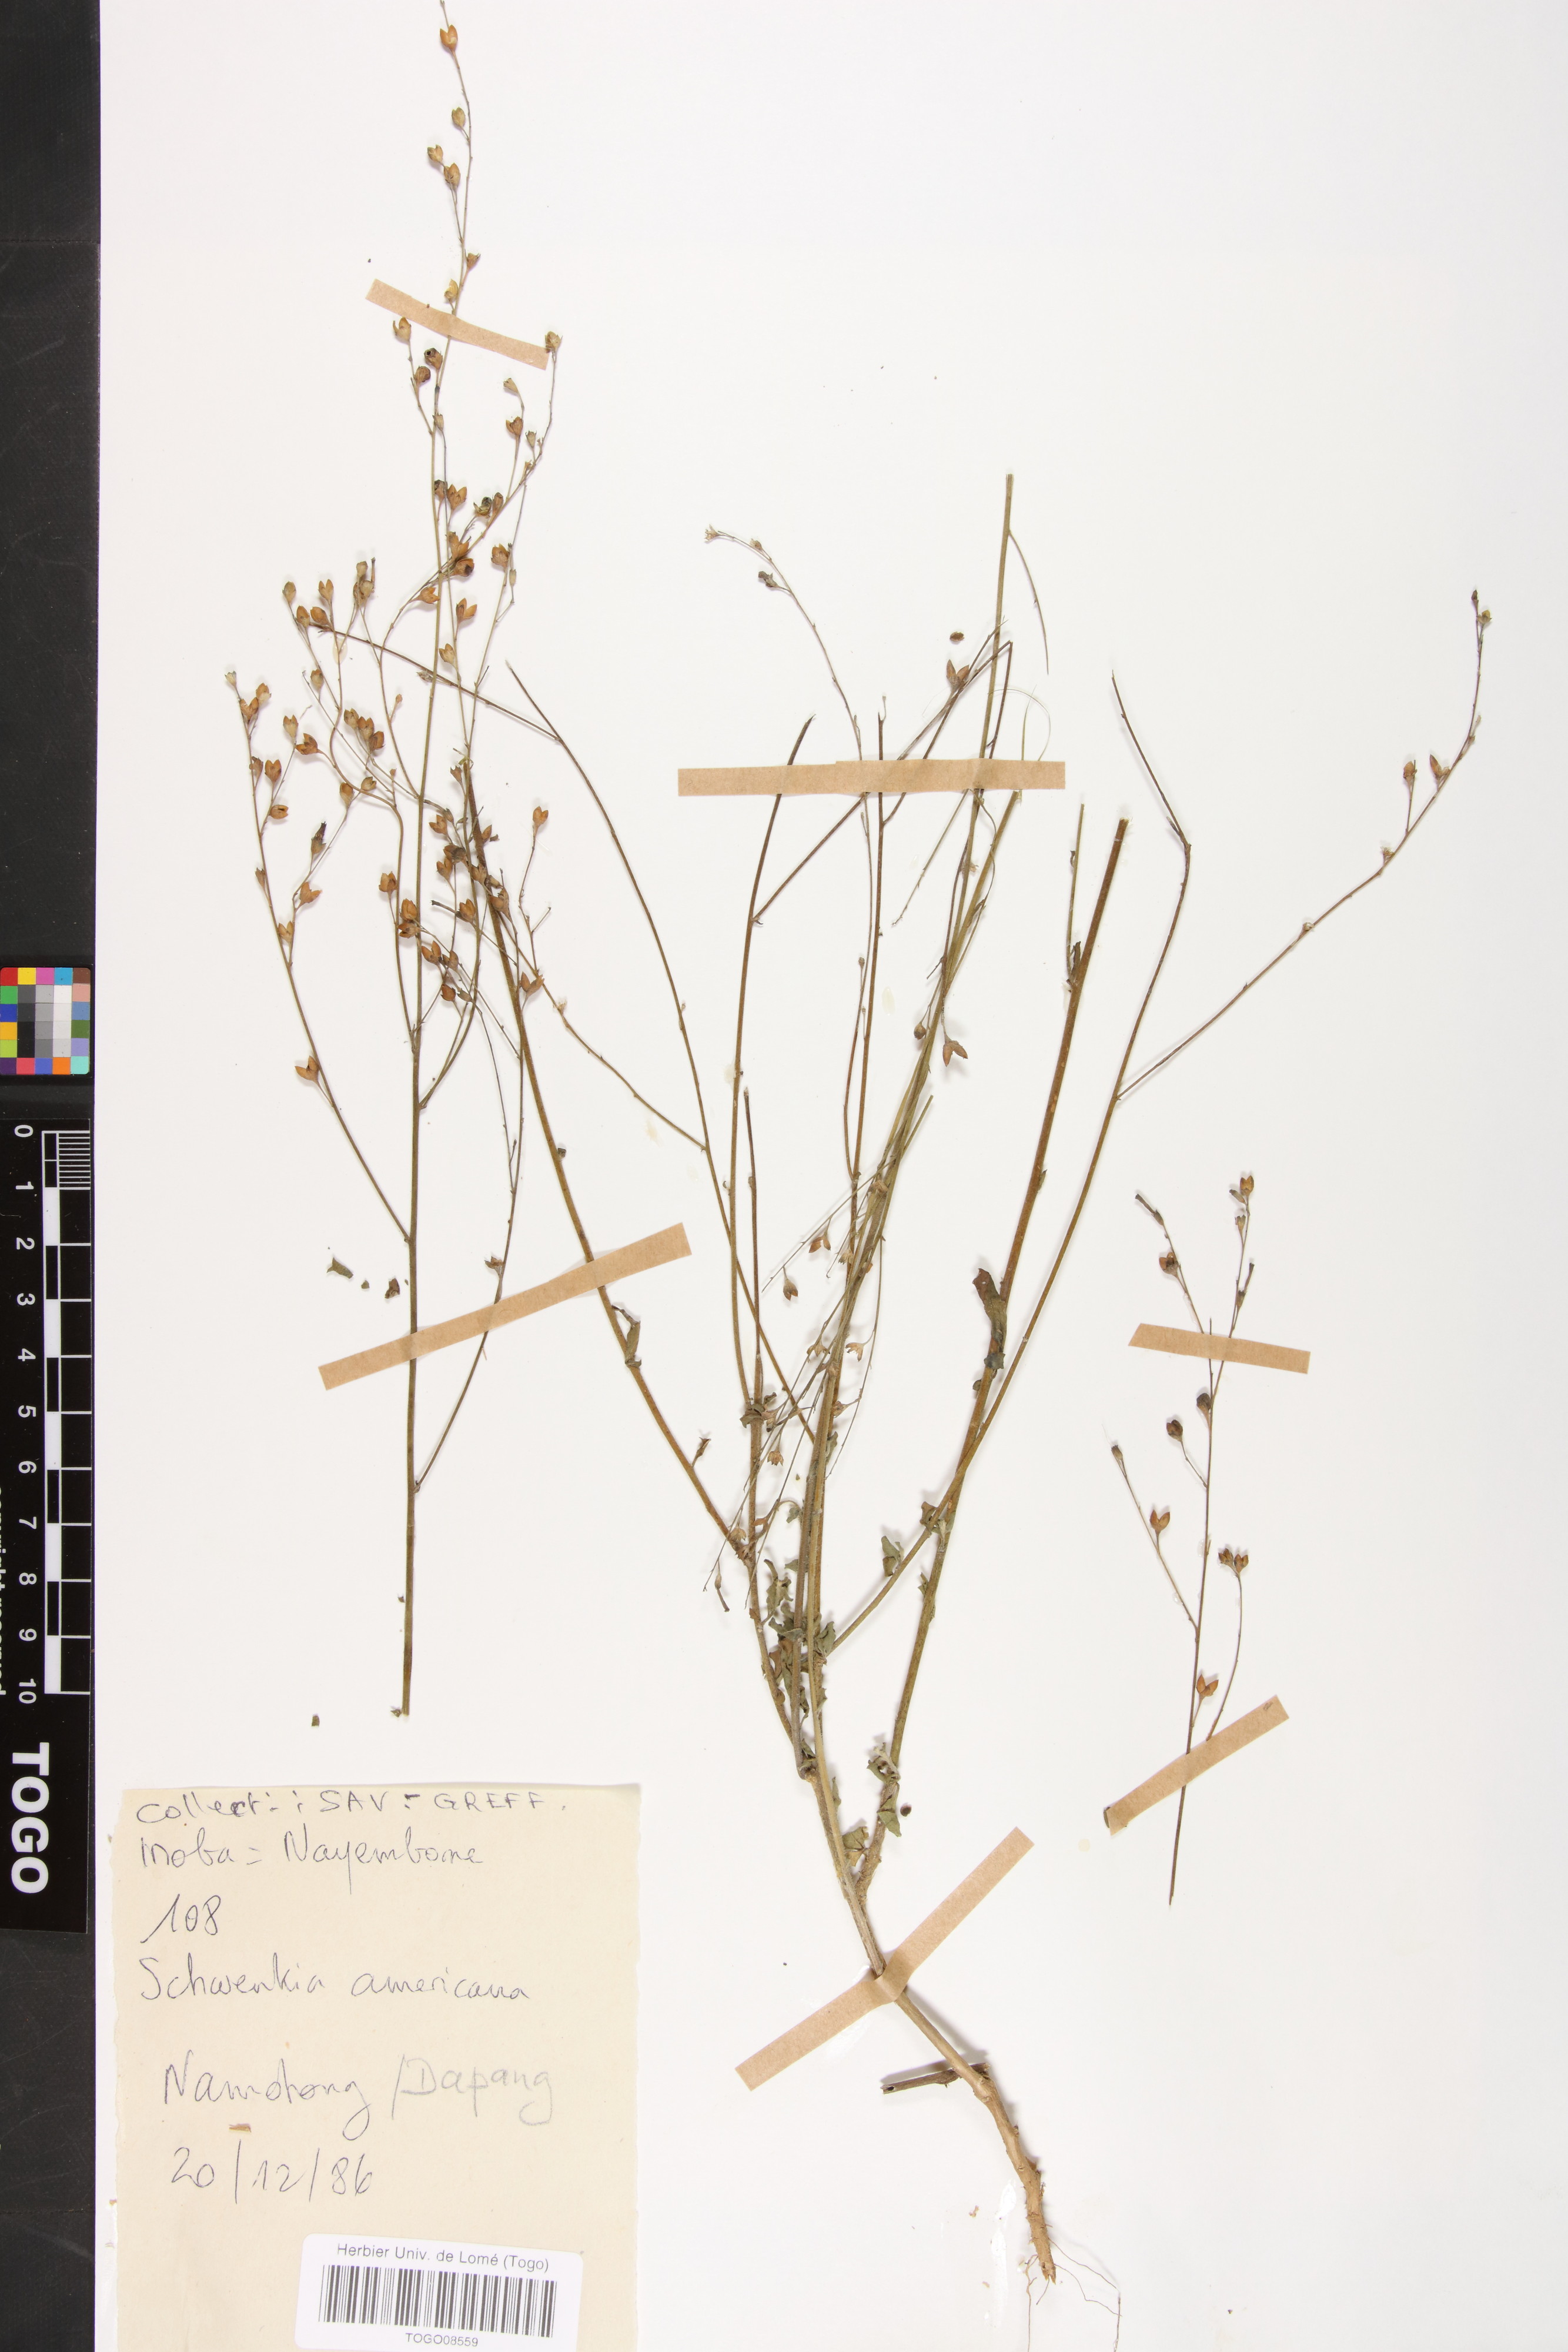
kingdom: Plantae
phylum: Tracheophyta
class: Magnoliopsida
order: Solanales
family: Solanaceae
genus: Schwenckia
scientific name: Schwenckia americana
